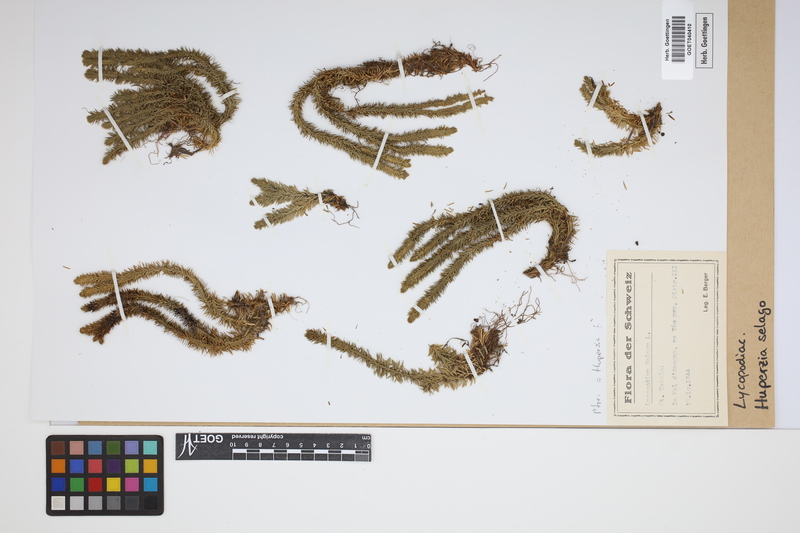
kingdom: Plantae
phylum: Tracheophyta
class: Lycopodiopsida
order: Lycopodiales
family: Lycopodiaceae
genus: Huperzia
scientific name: Huperzia selago
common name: Northern firmoss
